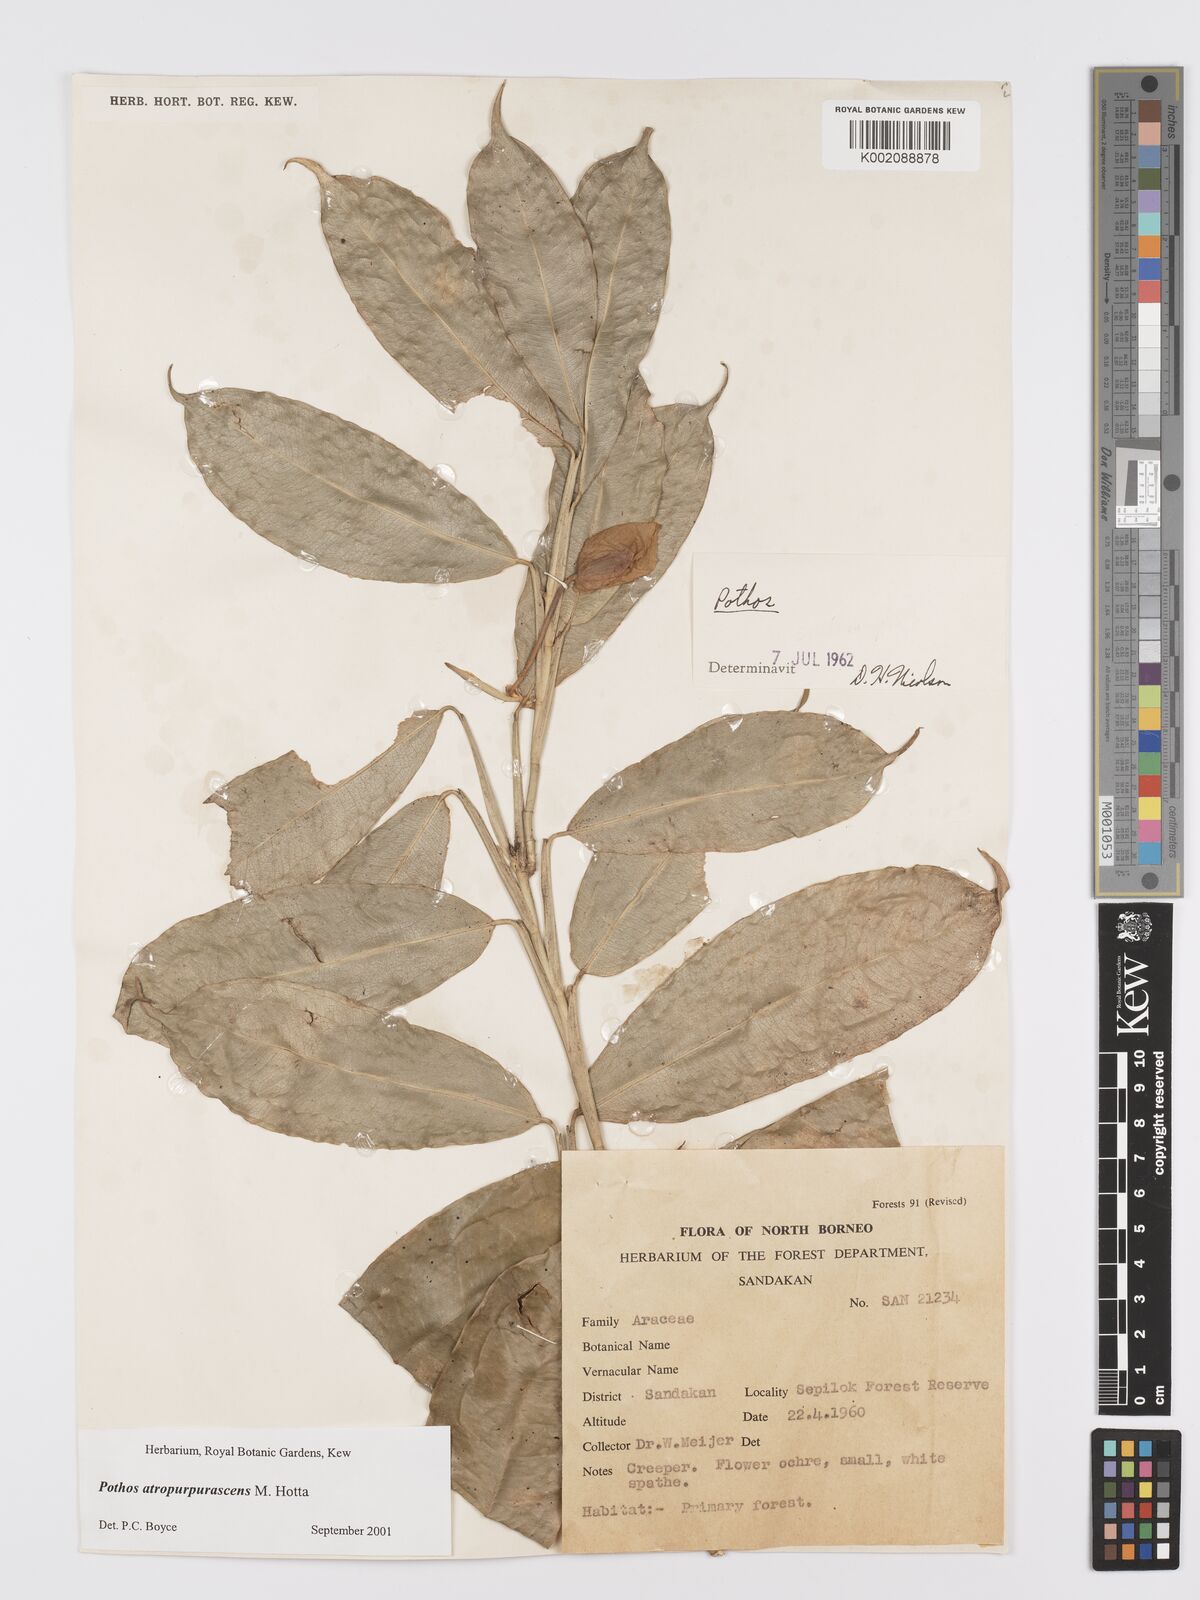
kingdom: Plantae
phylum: Tracheophyta
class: Liliopsida
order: Alismatales
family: Araceae
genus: Pothos
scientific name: Pothos atropurpurascens
